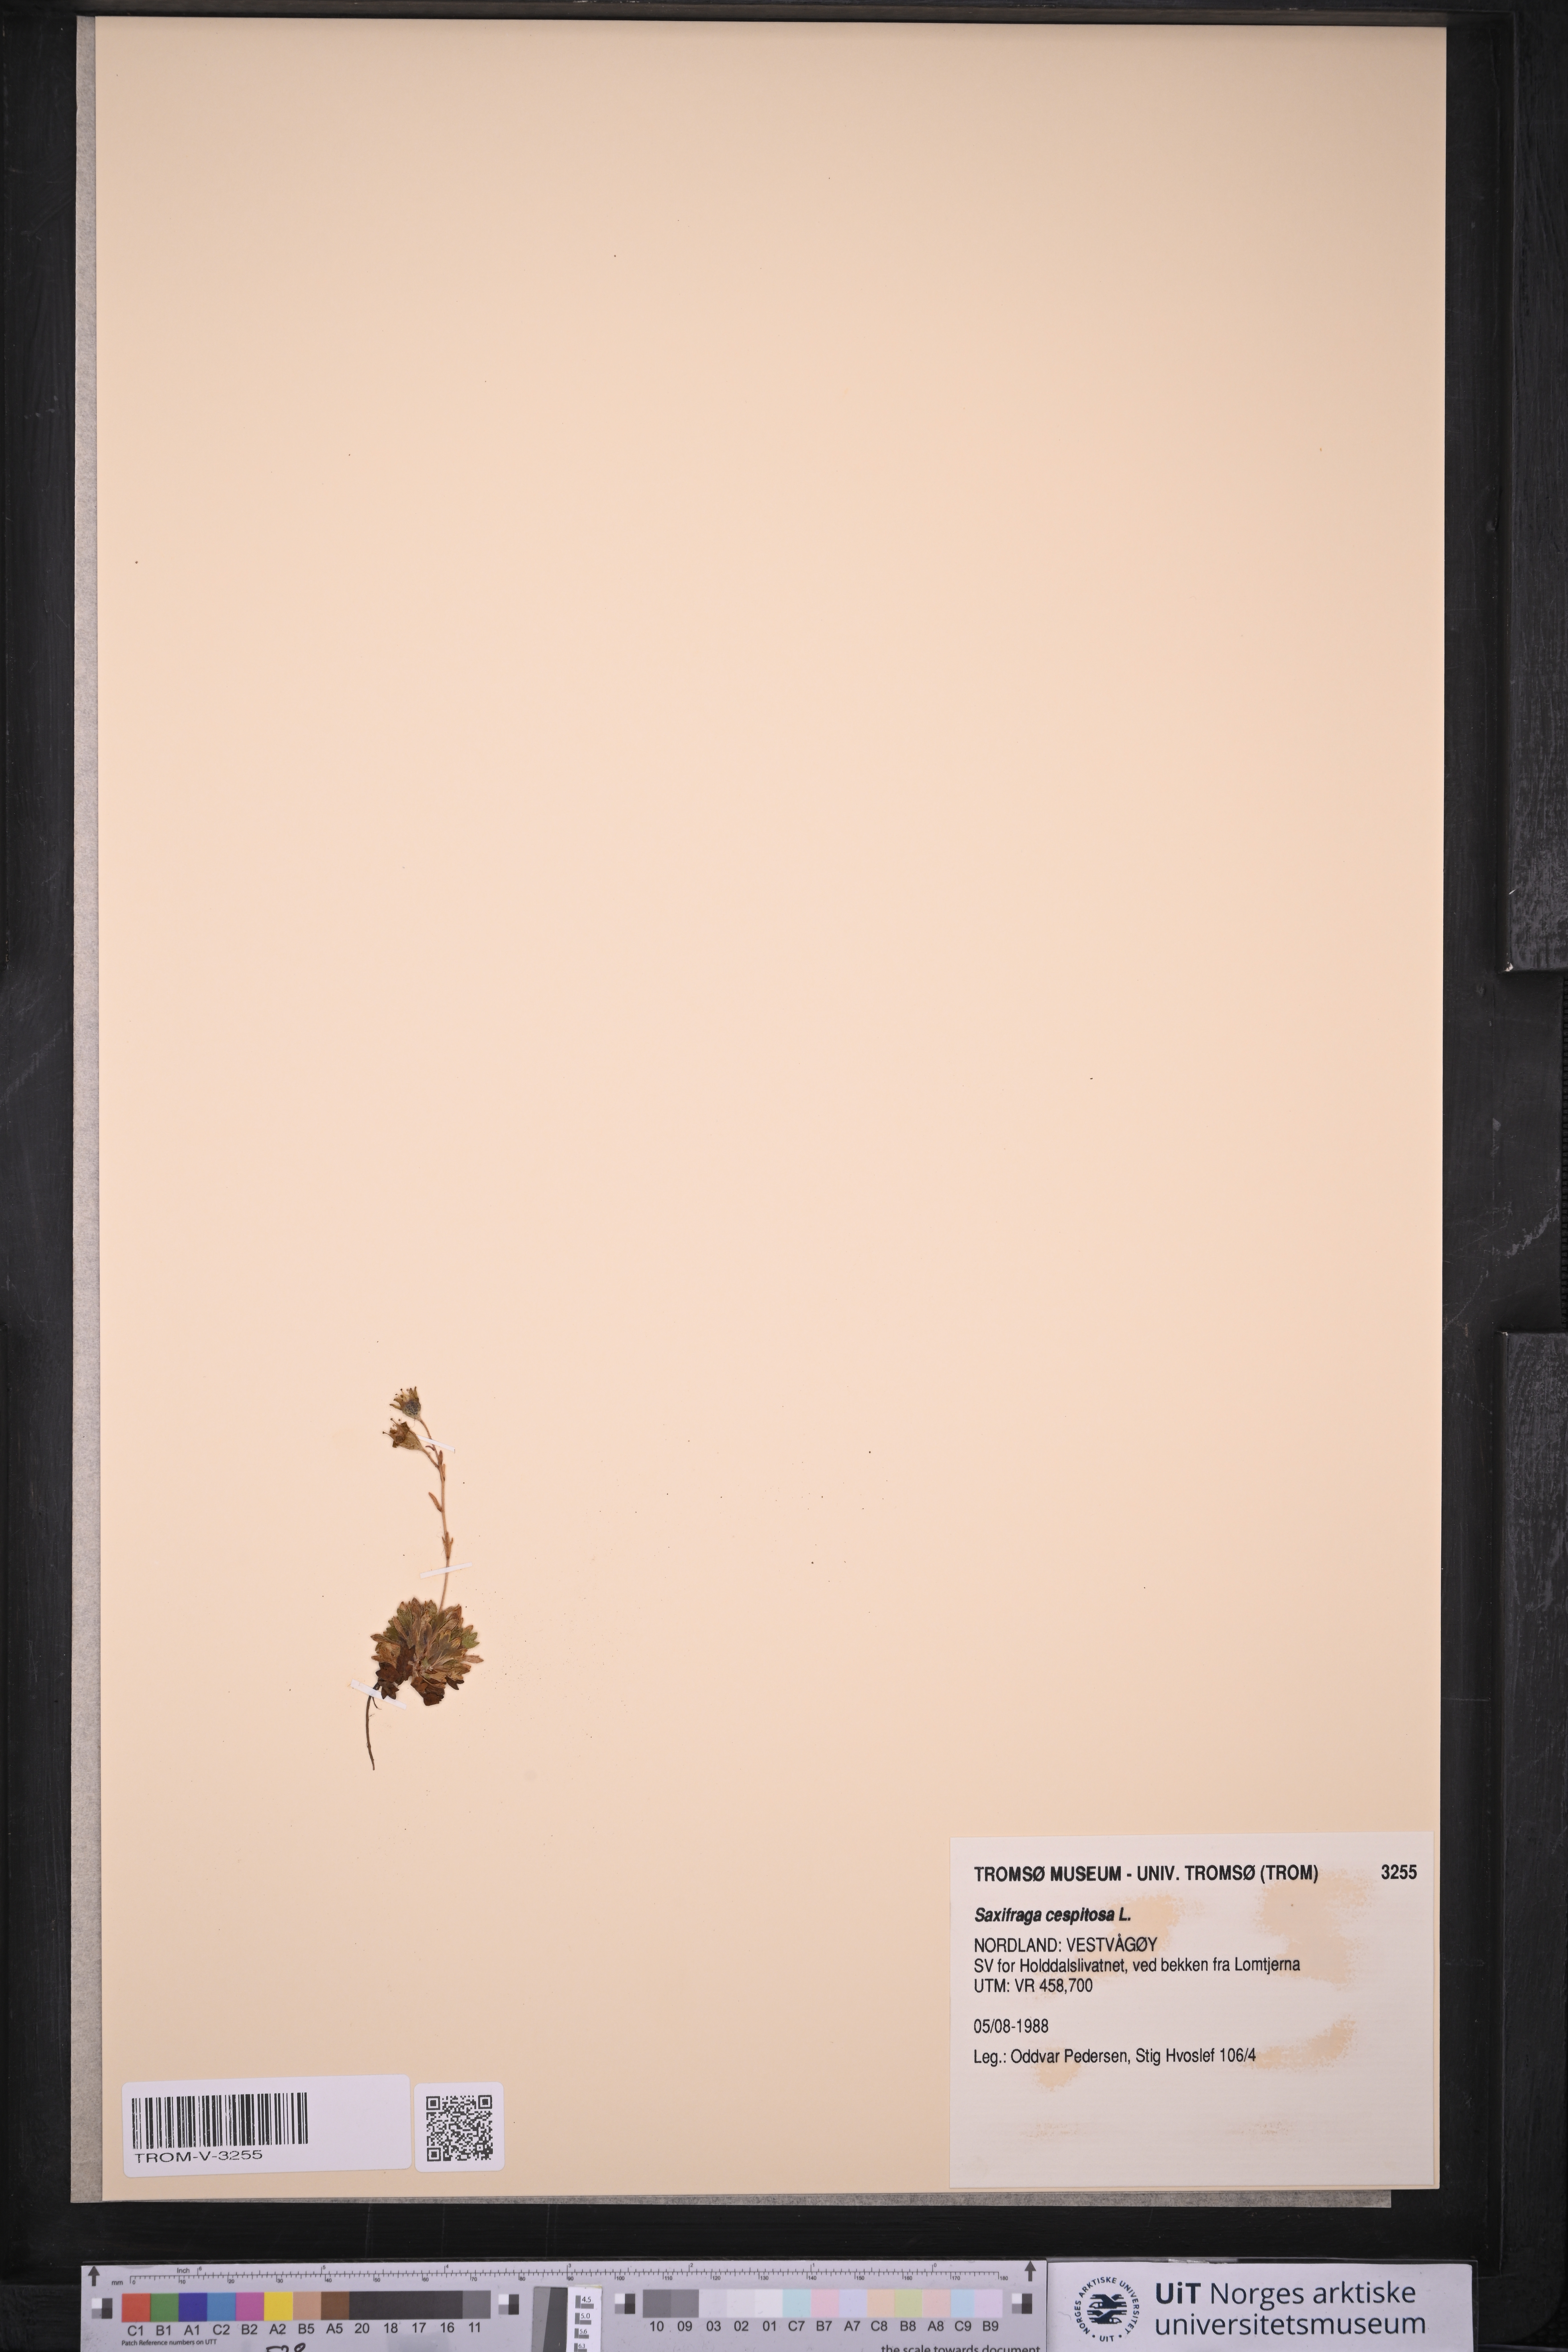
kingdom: Plantae
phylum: Tracheophyta
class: Magnoliopsida
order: Saxifragales
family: Saxifragaceae
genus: Saxifraga
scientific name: Saxifraga cespitosa
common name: Tufted saxifrage
